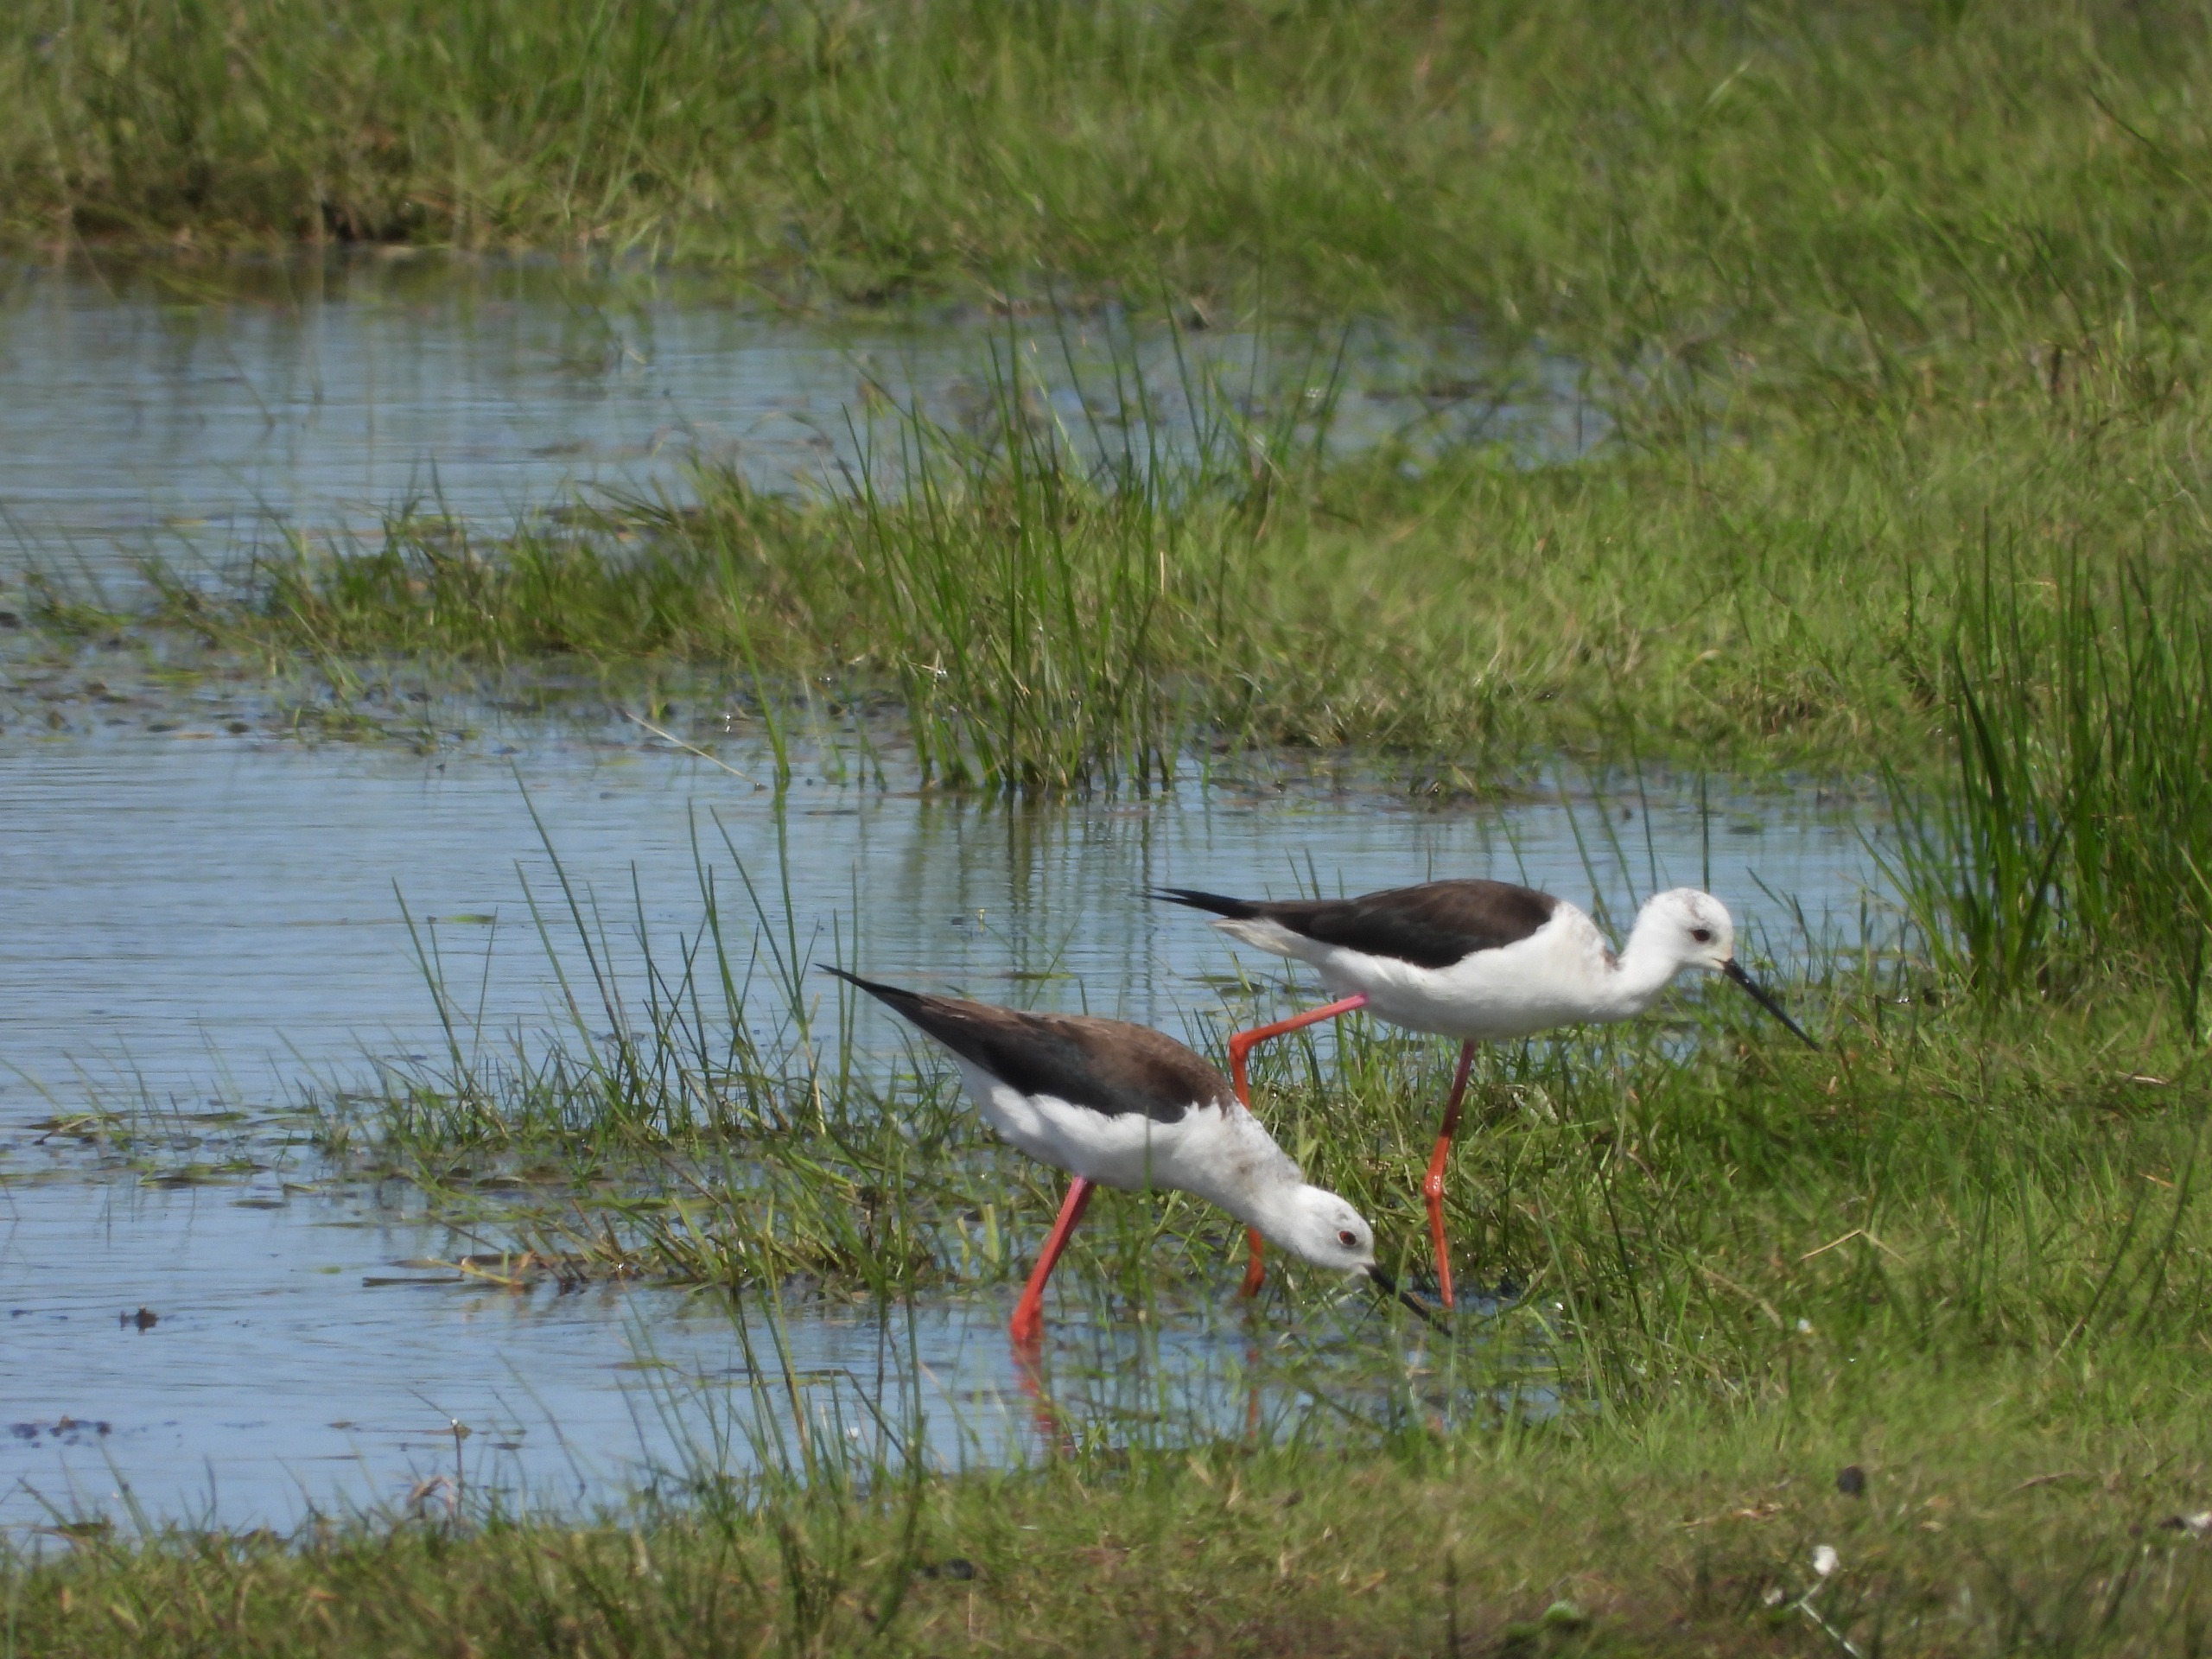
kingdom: Animalia
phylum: Chordata
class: Aves
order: Charadriiformes
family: Recurvirostridae
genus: Himantopus
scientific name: Himantopus himantopus
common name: Stylteløber
